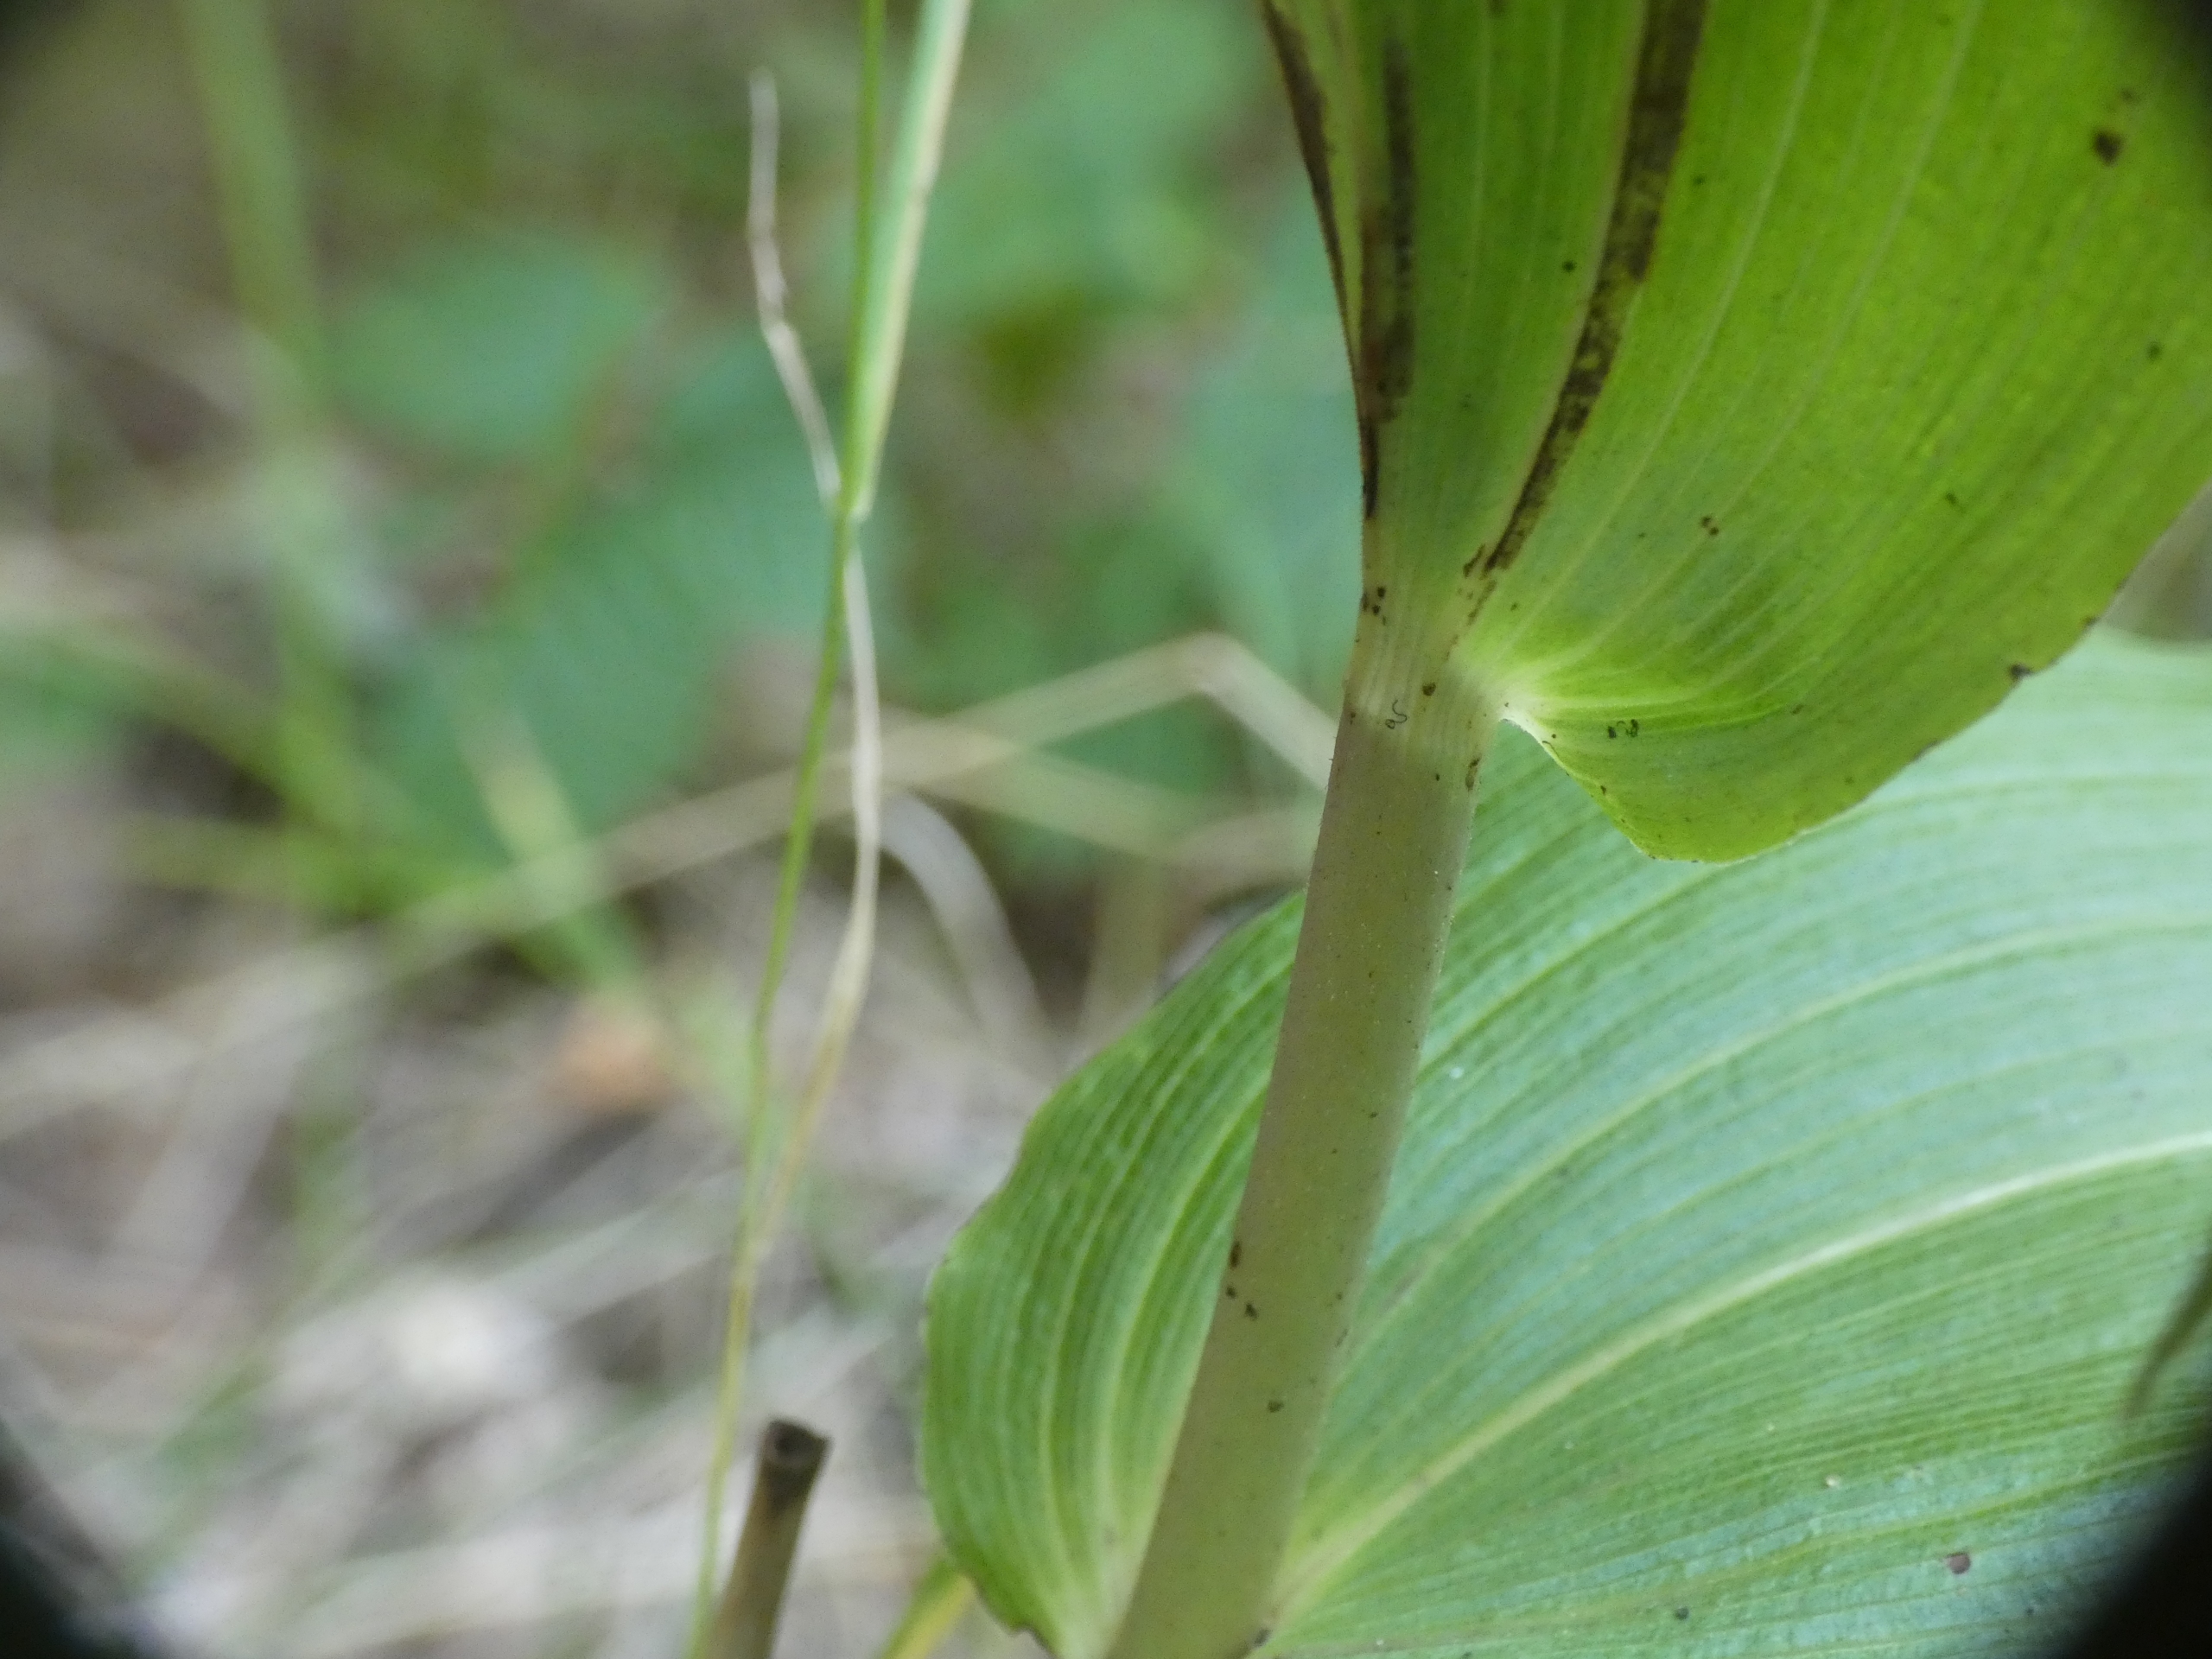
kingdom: Plantae
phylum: Tracheophyta
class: Liliopsida
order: Asparagales
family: Orchidaceae
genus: Epipactis
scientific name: Epipactis helleborine
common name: Skov-hullæbe
